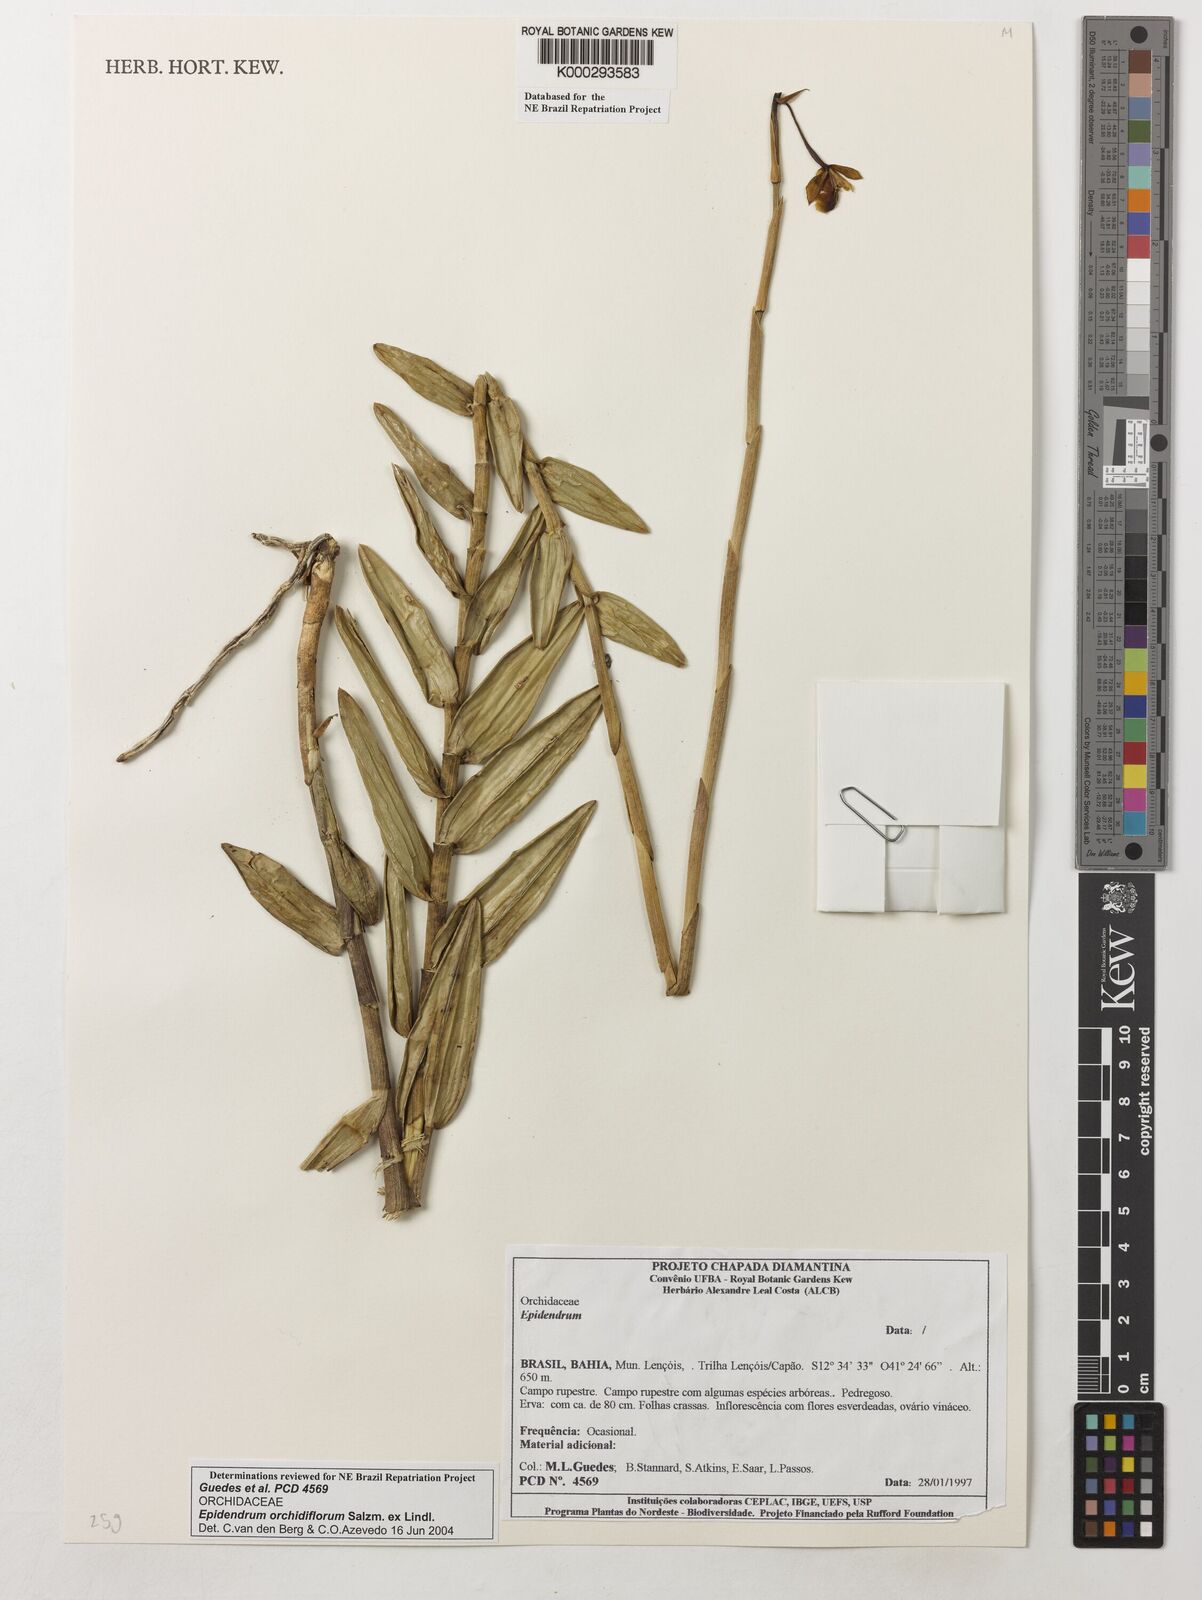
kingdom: Plantae
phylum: Tracheophyta
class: Liliopsida
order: Asparagales
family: Orchidaceae
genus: Epidendrum
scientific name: Epidendrum orchidiflorum
